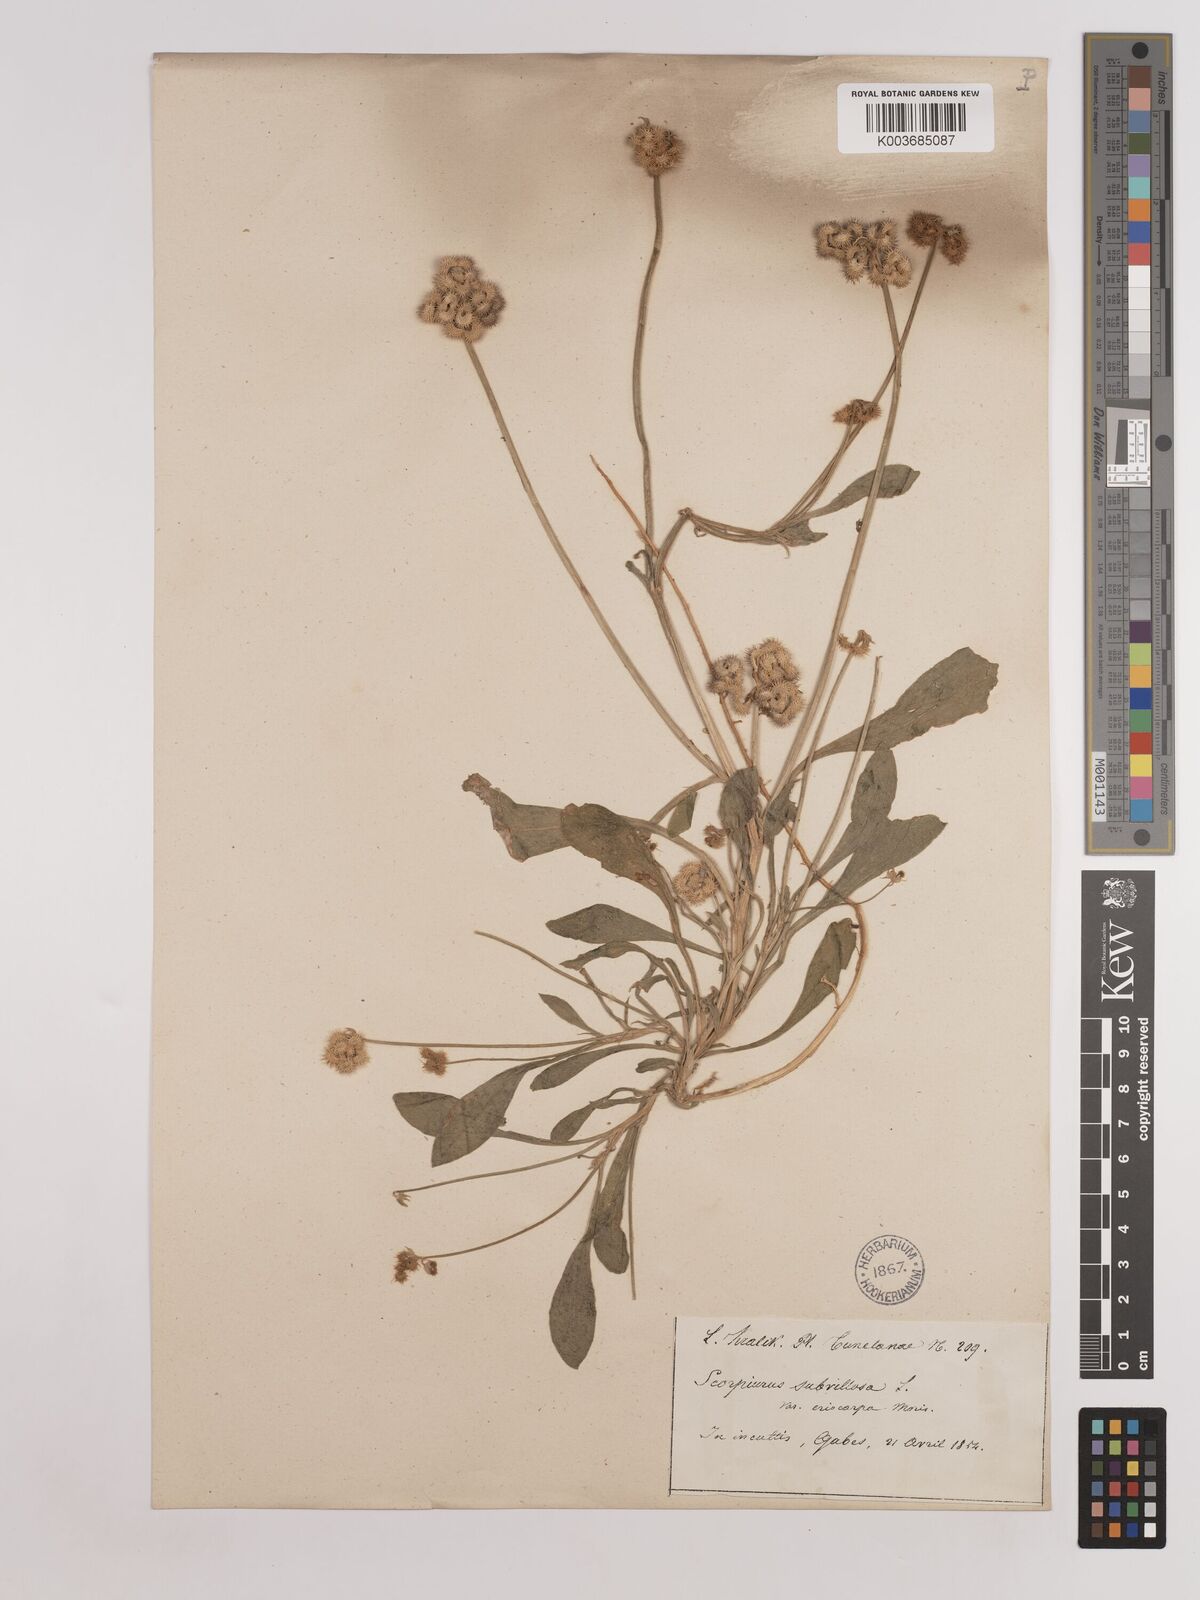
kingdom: Plantae
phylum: Tracheophyta
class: Magnoliopsida
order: Fabales
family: Fabaceae
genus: Scorpiurus
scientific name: Scorpiurus muricatus
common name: Caterpillar-plant
